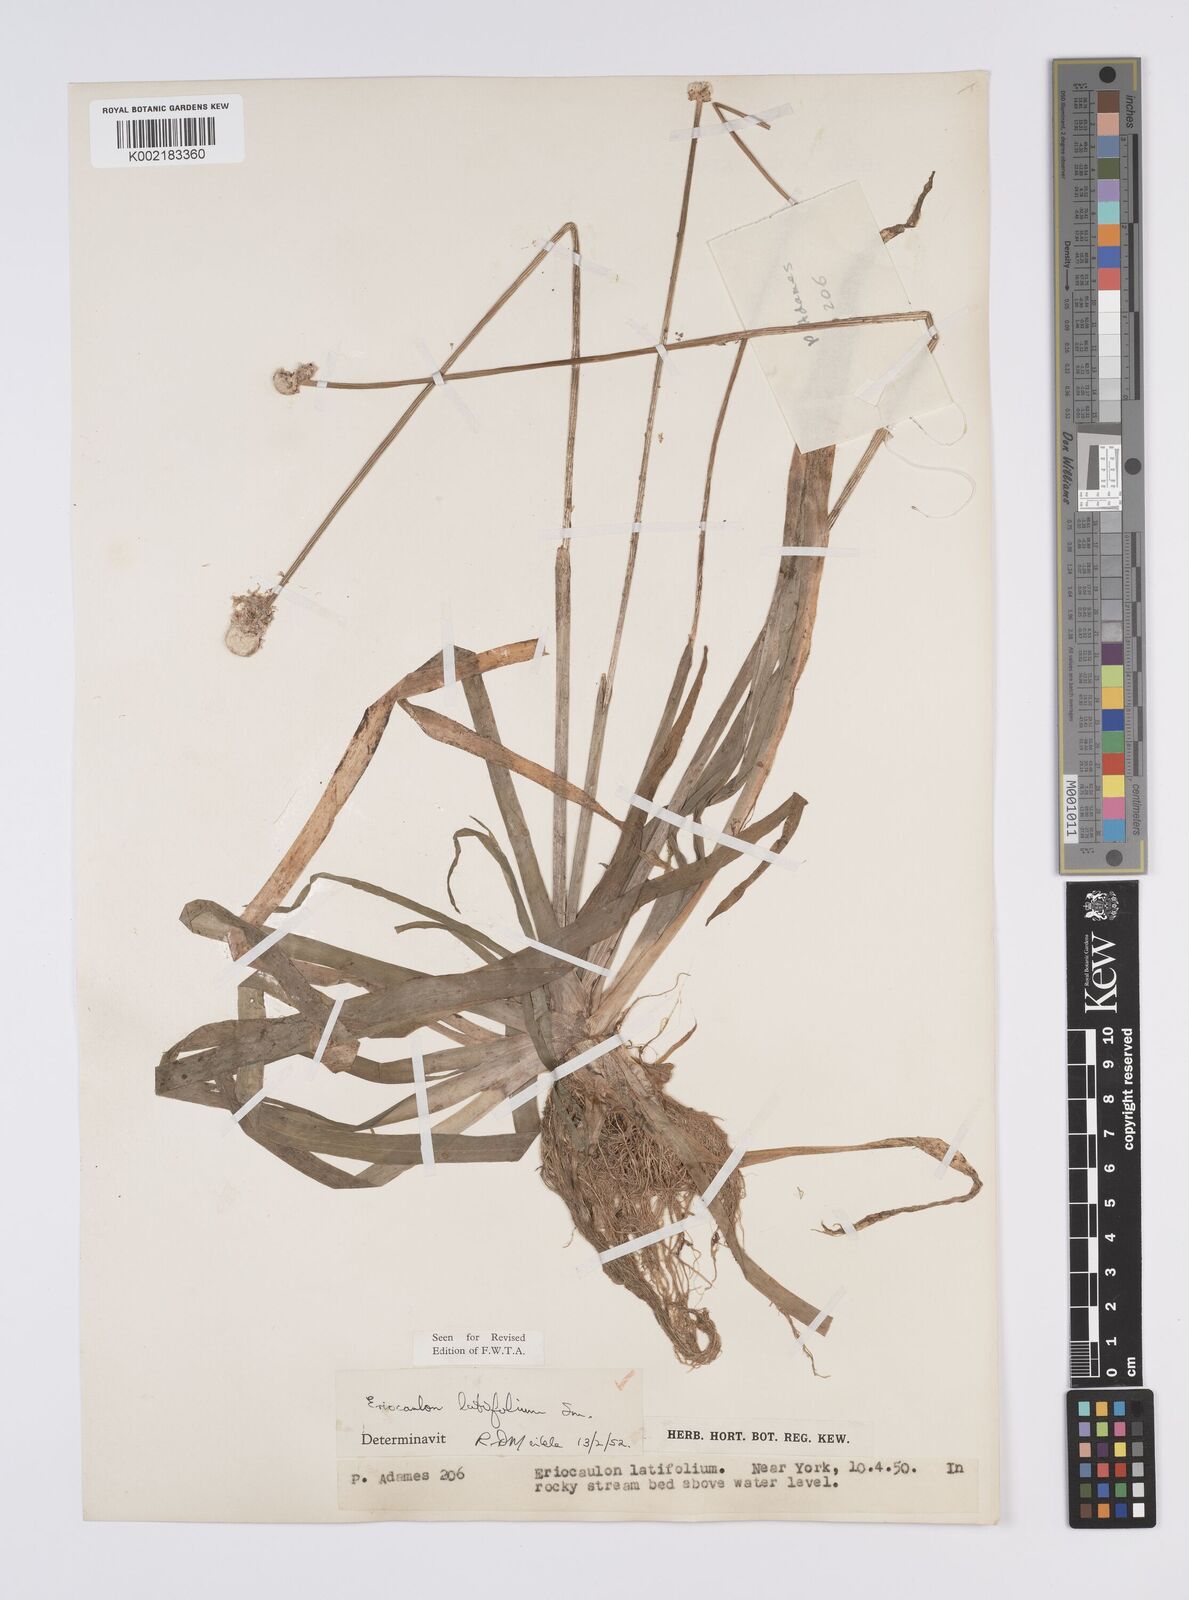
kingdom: Plantae
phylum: Tracheophyta
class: Liliopsida
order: Poales
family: Eriocaulaceae
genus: Eriocaulon
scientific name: Eriocaulon latifolium
